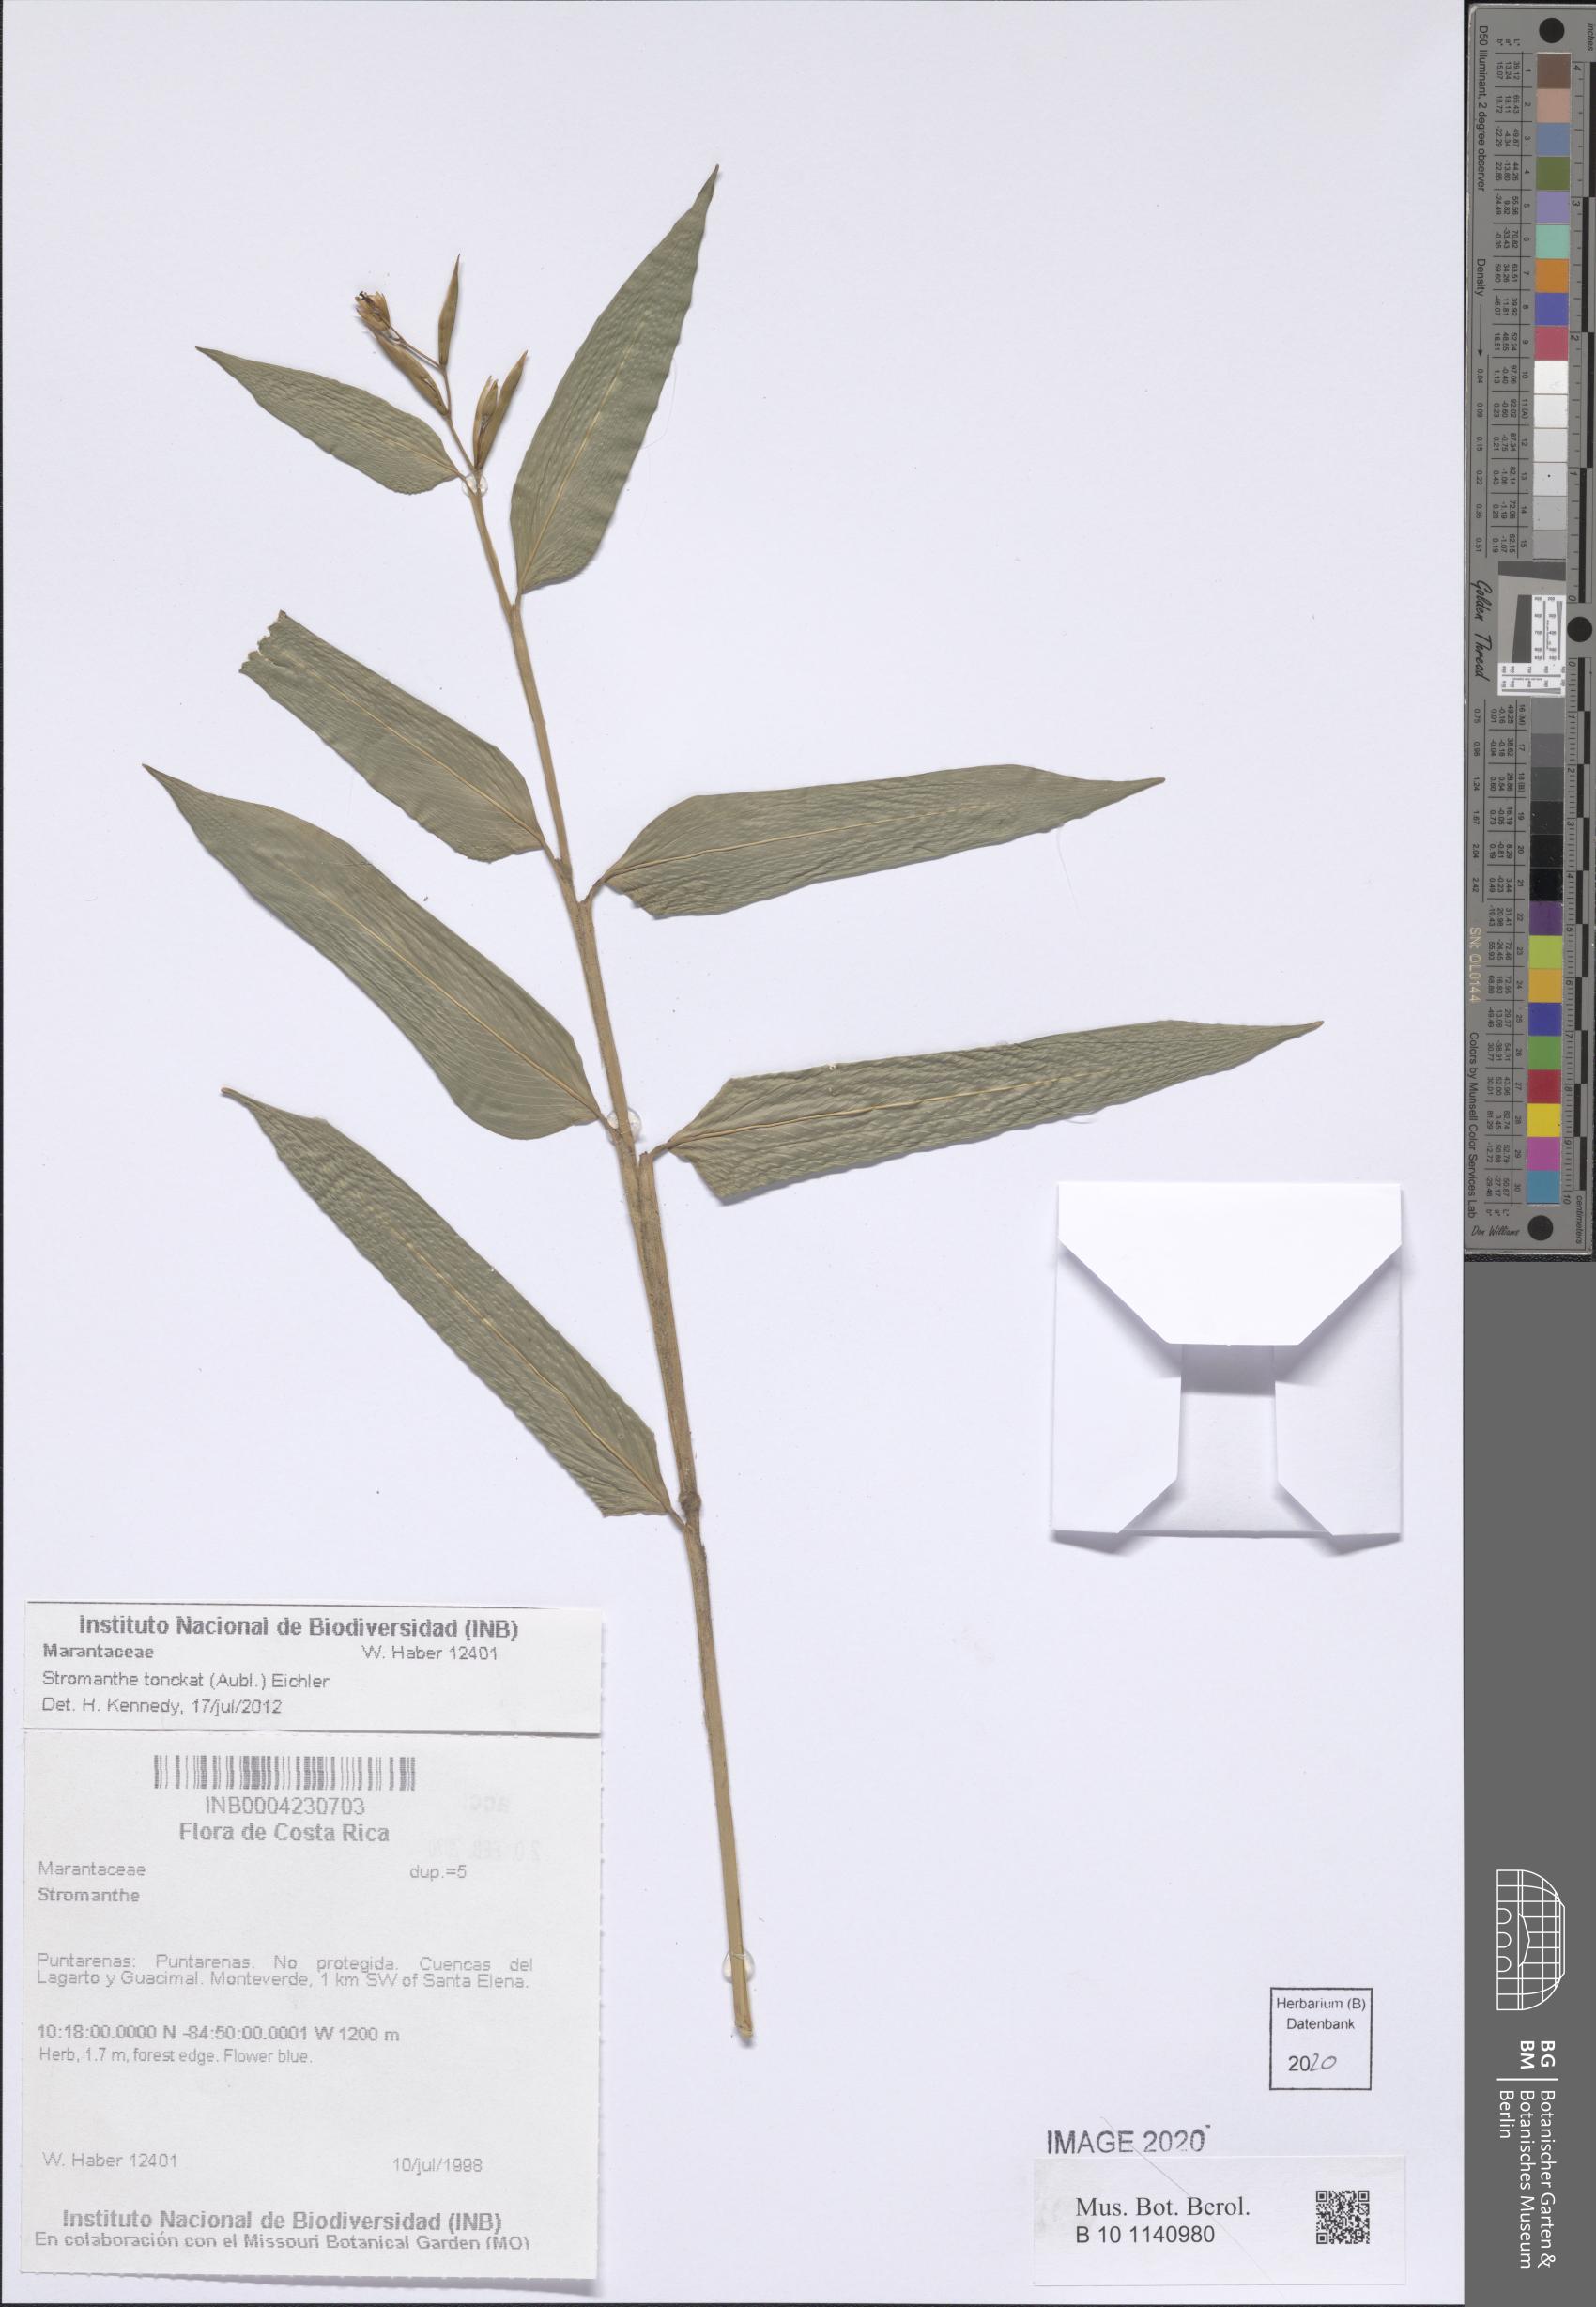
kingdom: Plantae
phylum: Tracheophyta
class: Liliopsida
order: Zingiberales
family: Marantaceae
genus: Stromanthe
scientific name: Stromanthe tonckat
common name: Stromanthe
